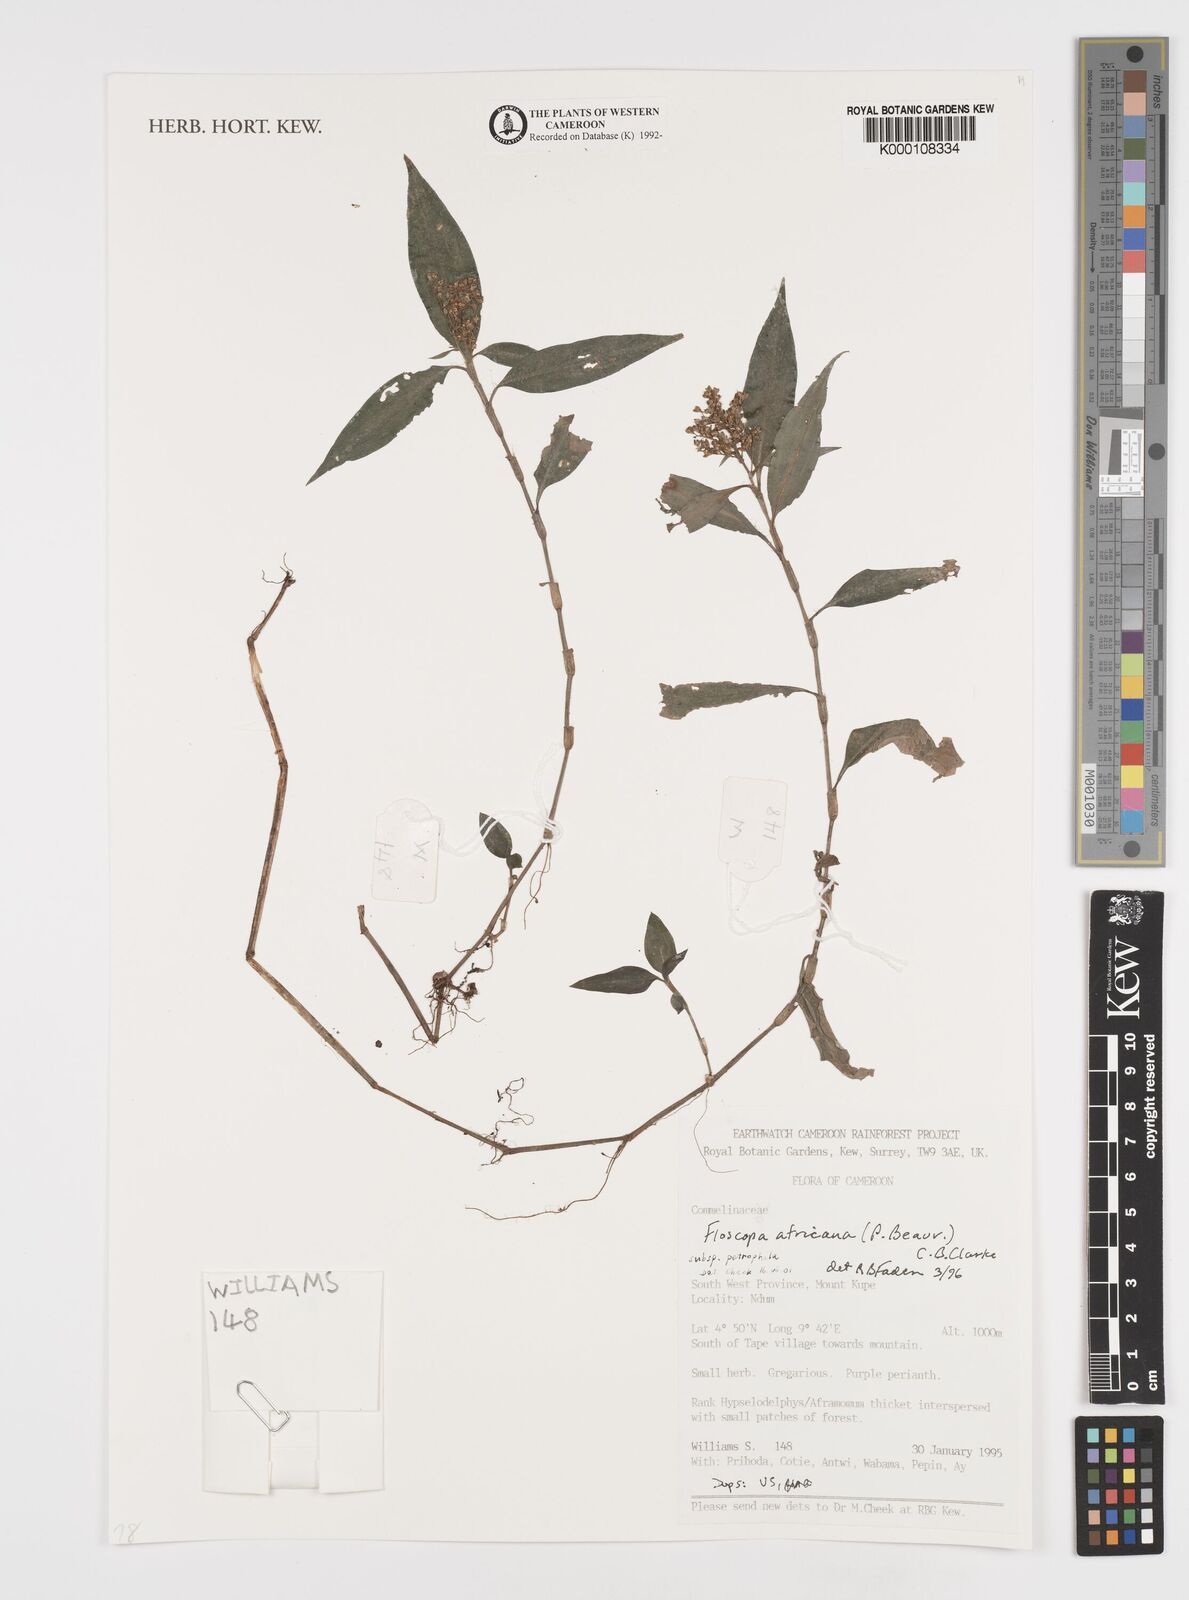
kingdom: Plantae
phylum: Tracheophyta
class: Liliopsida
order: Commelinales
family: Commelinaceae
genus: Floscopa
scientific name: Floscopa africana
